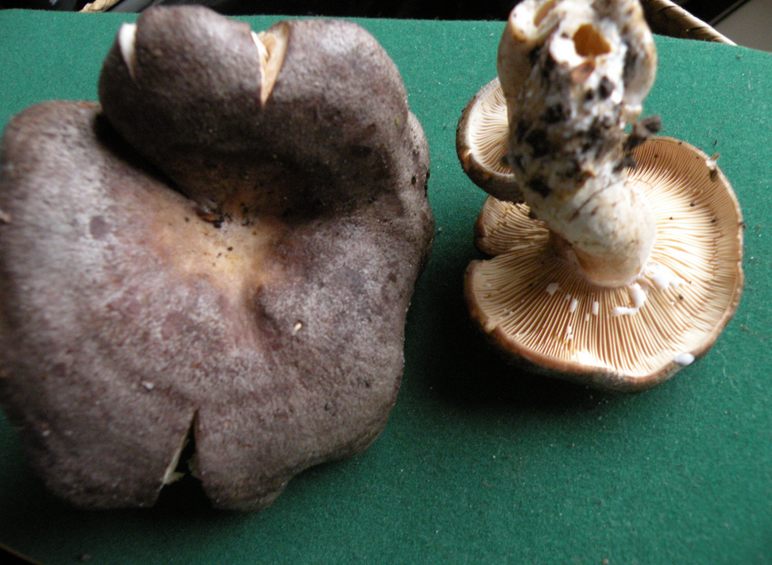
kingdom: Fungi
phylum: Basidiomycota
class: Agaricomycetes
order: Russulales
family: Russulaceae
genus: Lactarius
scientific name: Lactarius circellatus
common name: avnbøg-mælkehat
